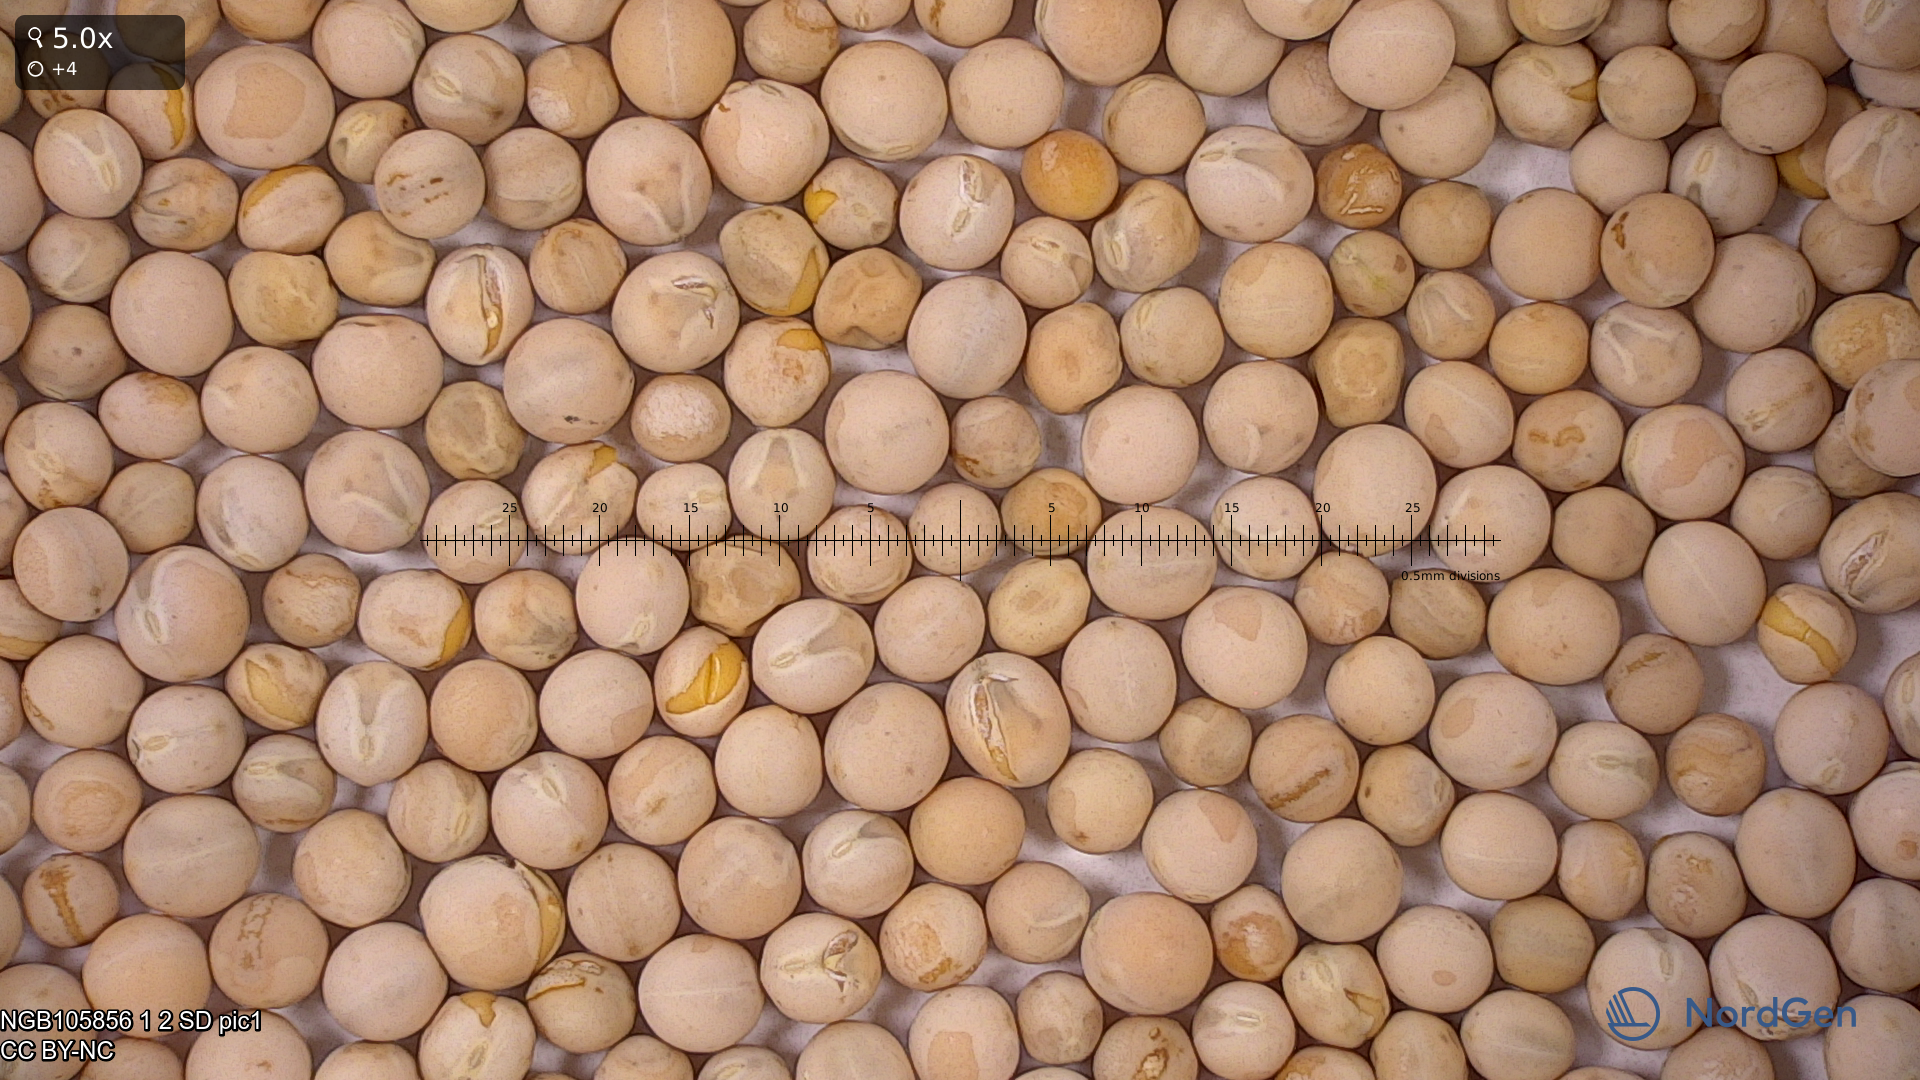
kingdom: Plantae
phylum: Tracheophyta
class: Magnoliopsida
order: Fabales
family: Fabaceae
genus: Lathyrus
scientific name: Lathyrus oleraceus
